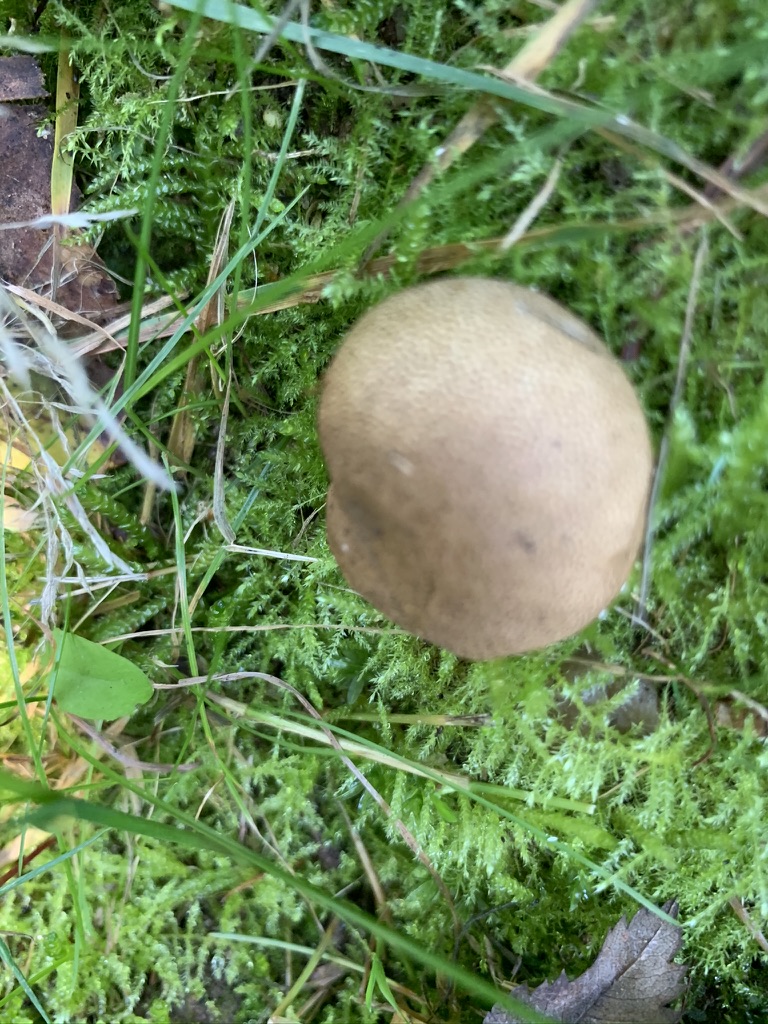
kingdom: Fungi
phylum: Basidiomycota
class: Agaricomycetes
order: Boletales
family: Sclerodermataceae
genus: Scleroderma
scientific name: Scleroderma areolatum
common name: plettet bruskbold
